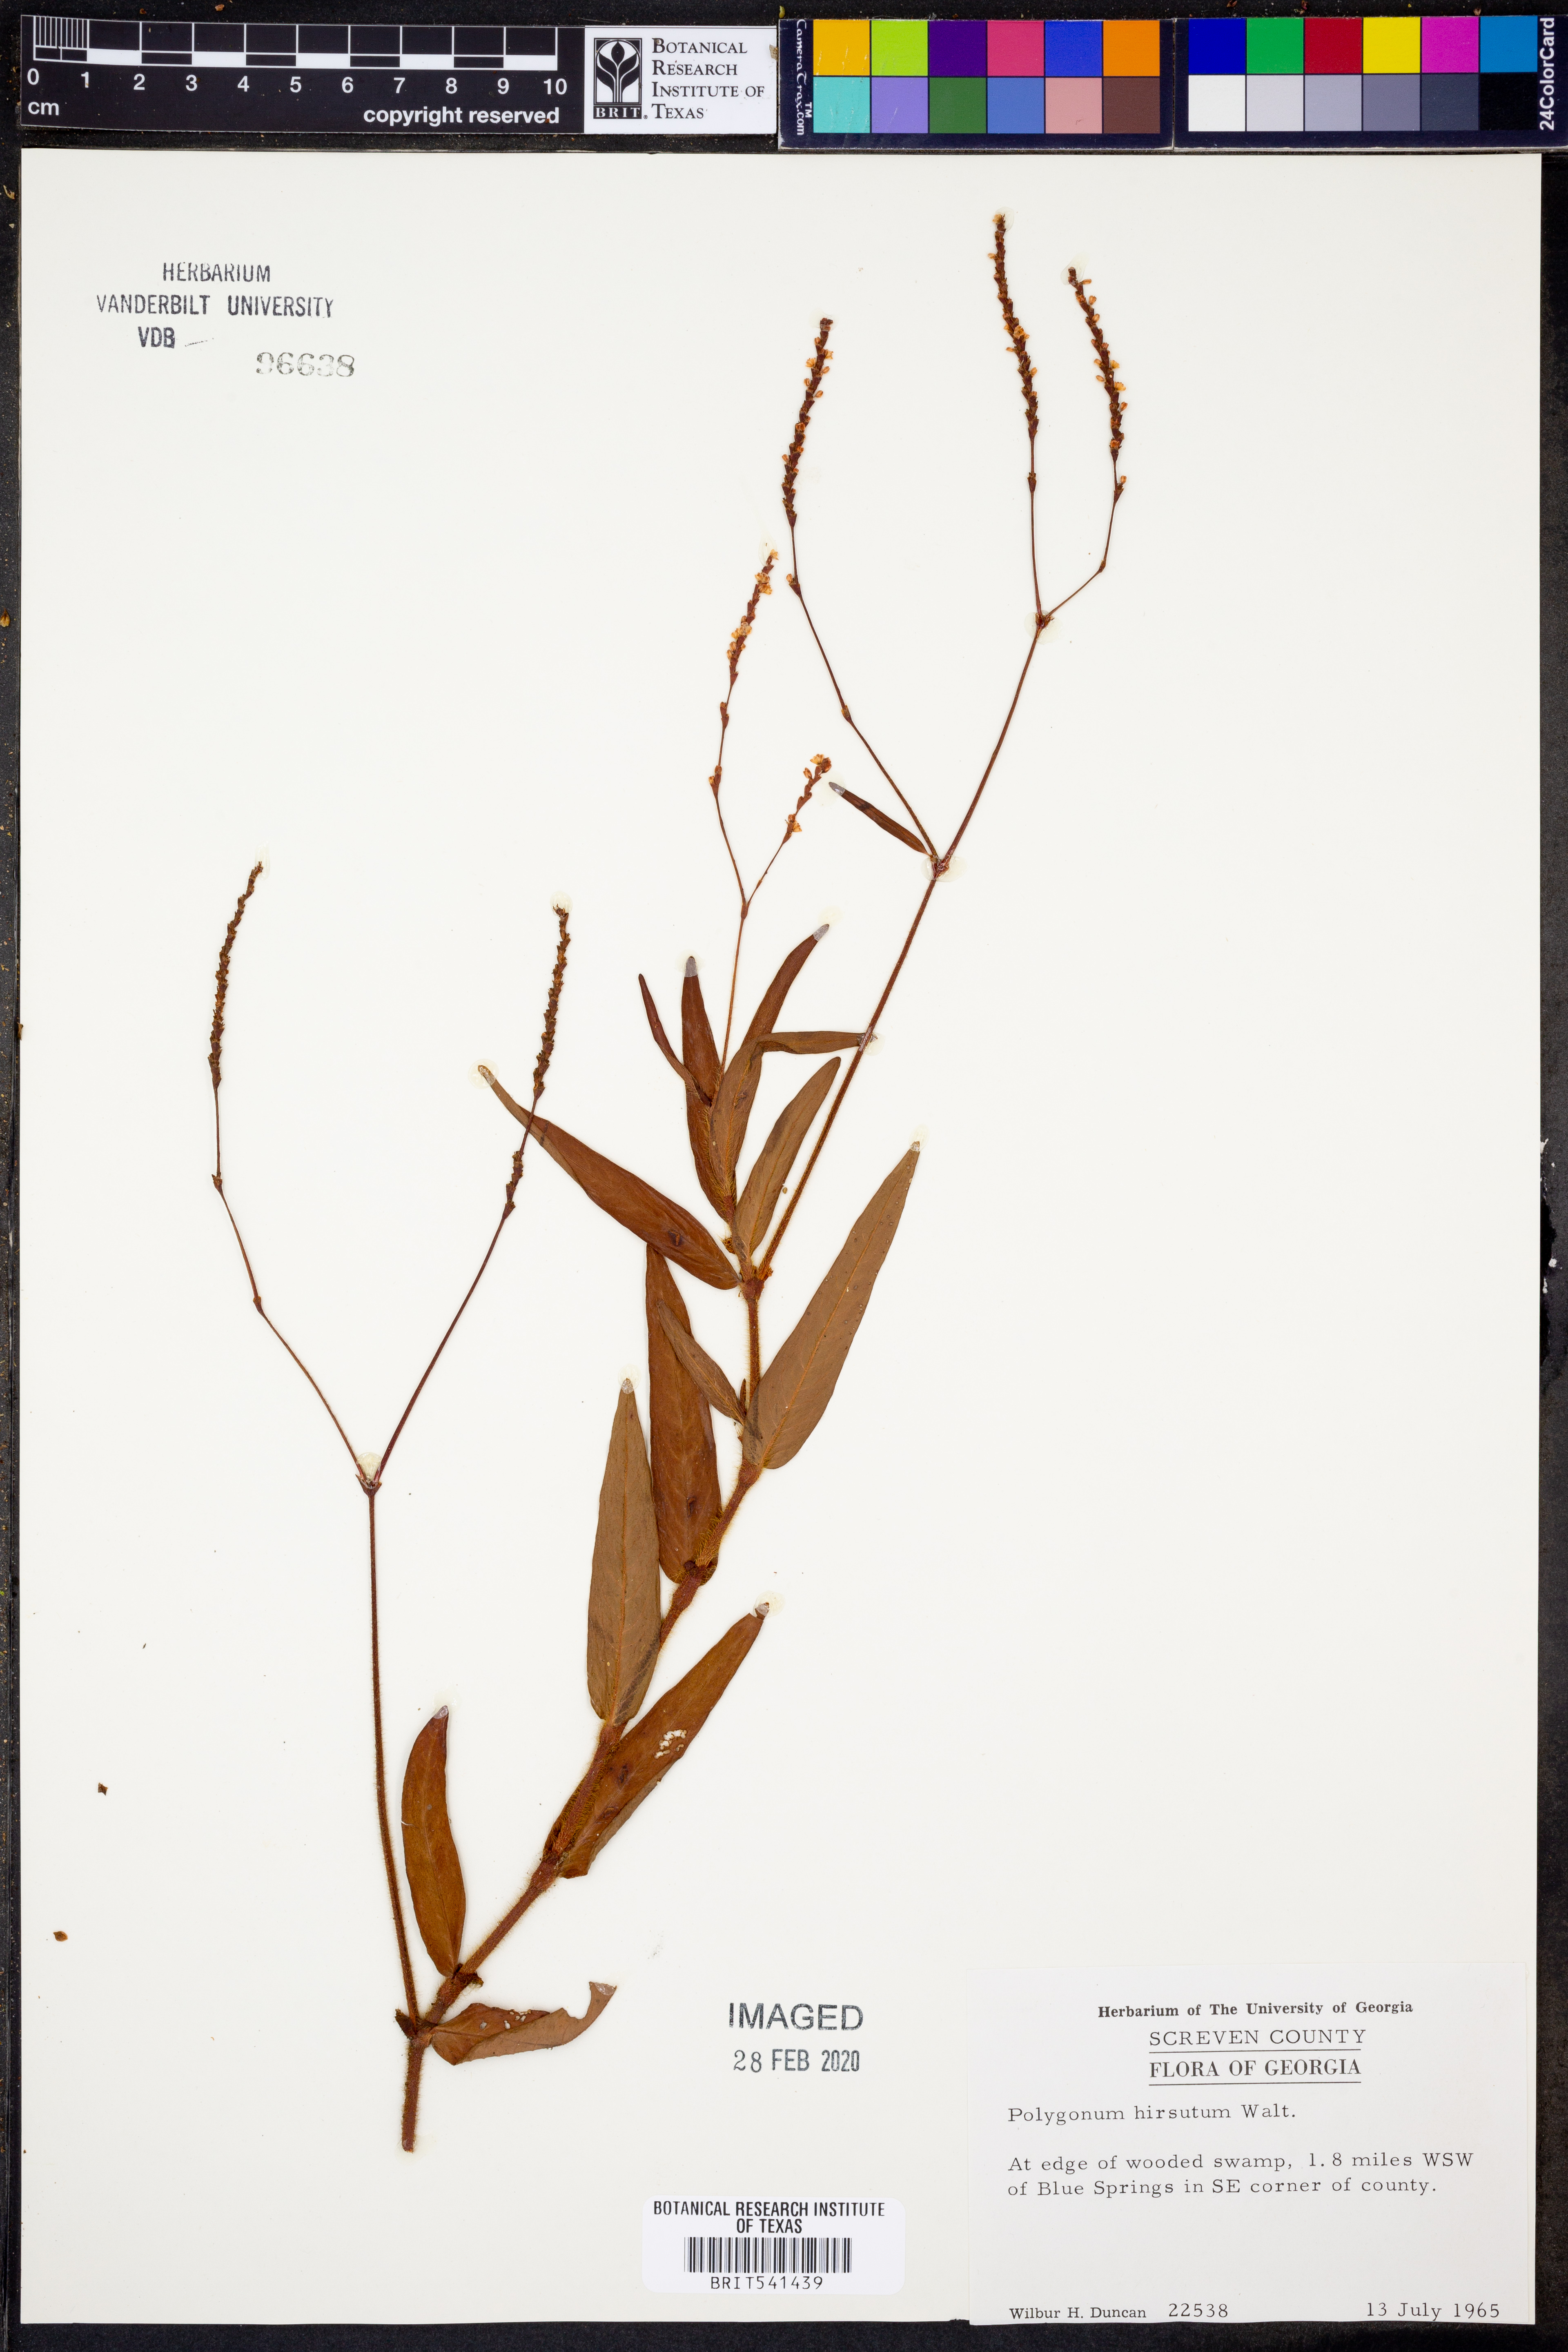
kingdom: Plantae
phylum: Tracheophyta
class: Magnoliopsida
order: Caryophyllales
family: Polygonaceae
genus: Persicaria
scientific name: Persicaria hirsuta
